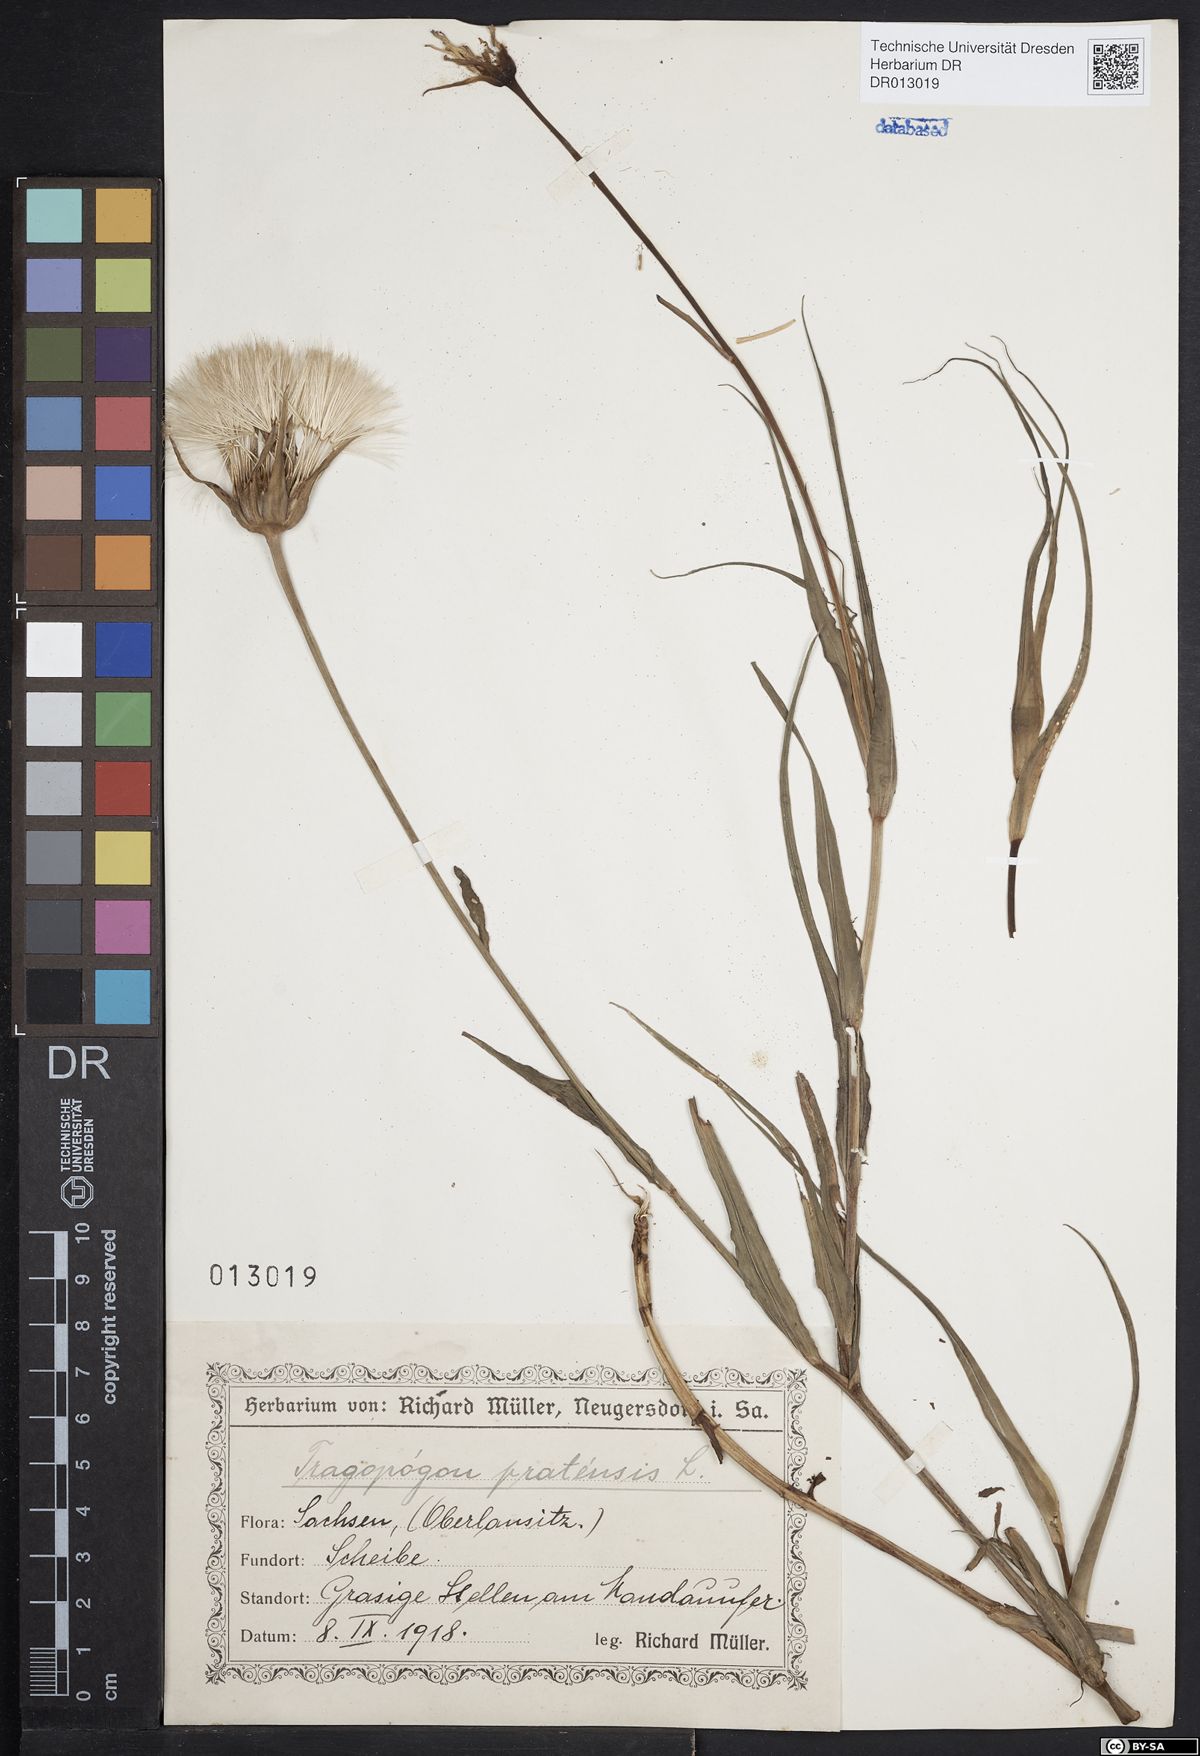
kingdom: Plantae
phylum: Tracheophyta
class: Magnoliopsida
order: Asterales
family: Asteraceae
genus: Tragopogon
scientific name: Tragopogon pratensis
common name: Goat's-beard
